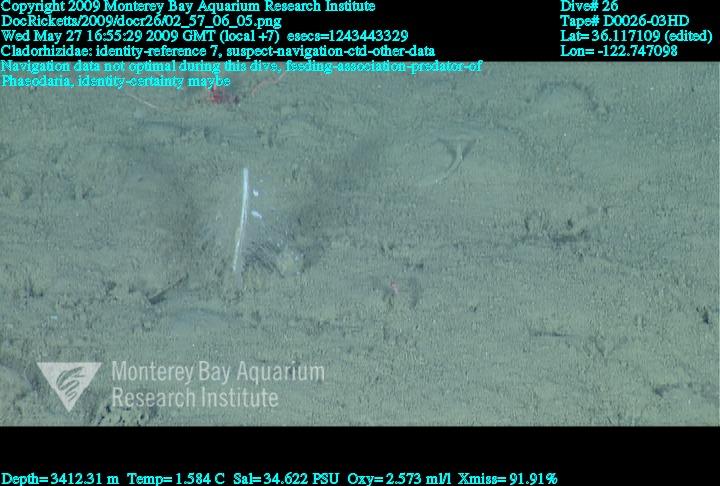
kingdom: Animalia
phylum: Porifera
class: Demospongiae
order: Poecilosclerida
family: Cladorhizidae
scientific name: Cladorhizidae
